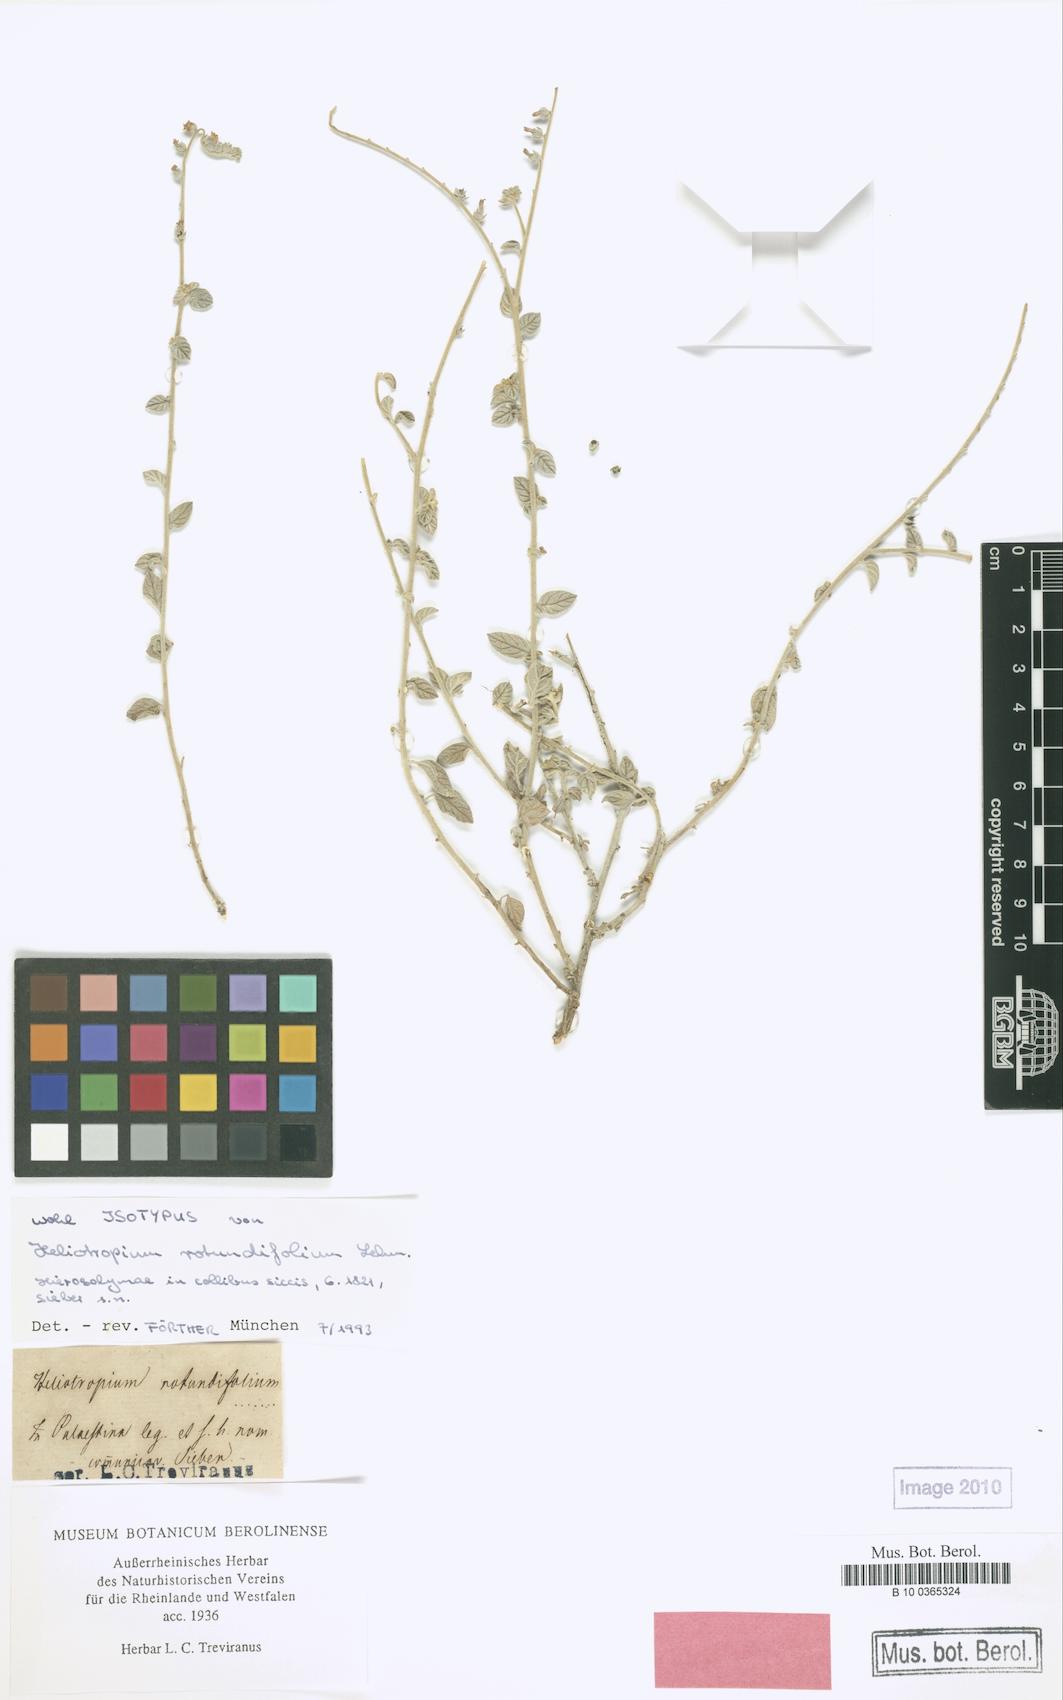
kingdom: Plantae
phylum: Tracheophyta
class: Magnoliopsida
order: Boraginales
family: Heliotropiaceae
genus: Heliotropium
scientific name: Heliotropium rotundifolium
